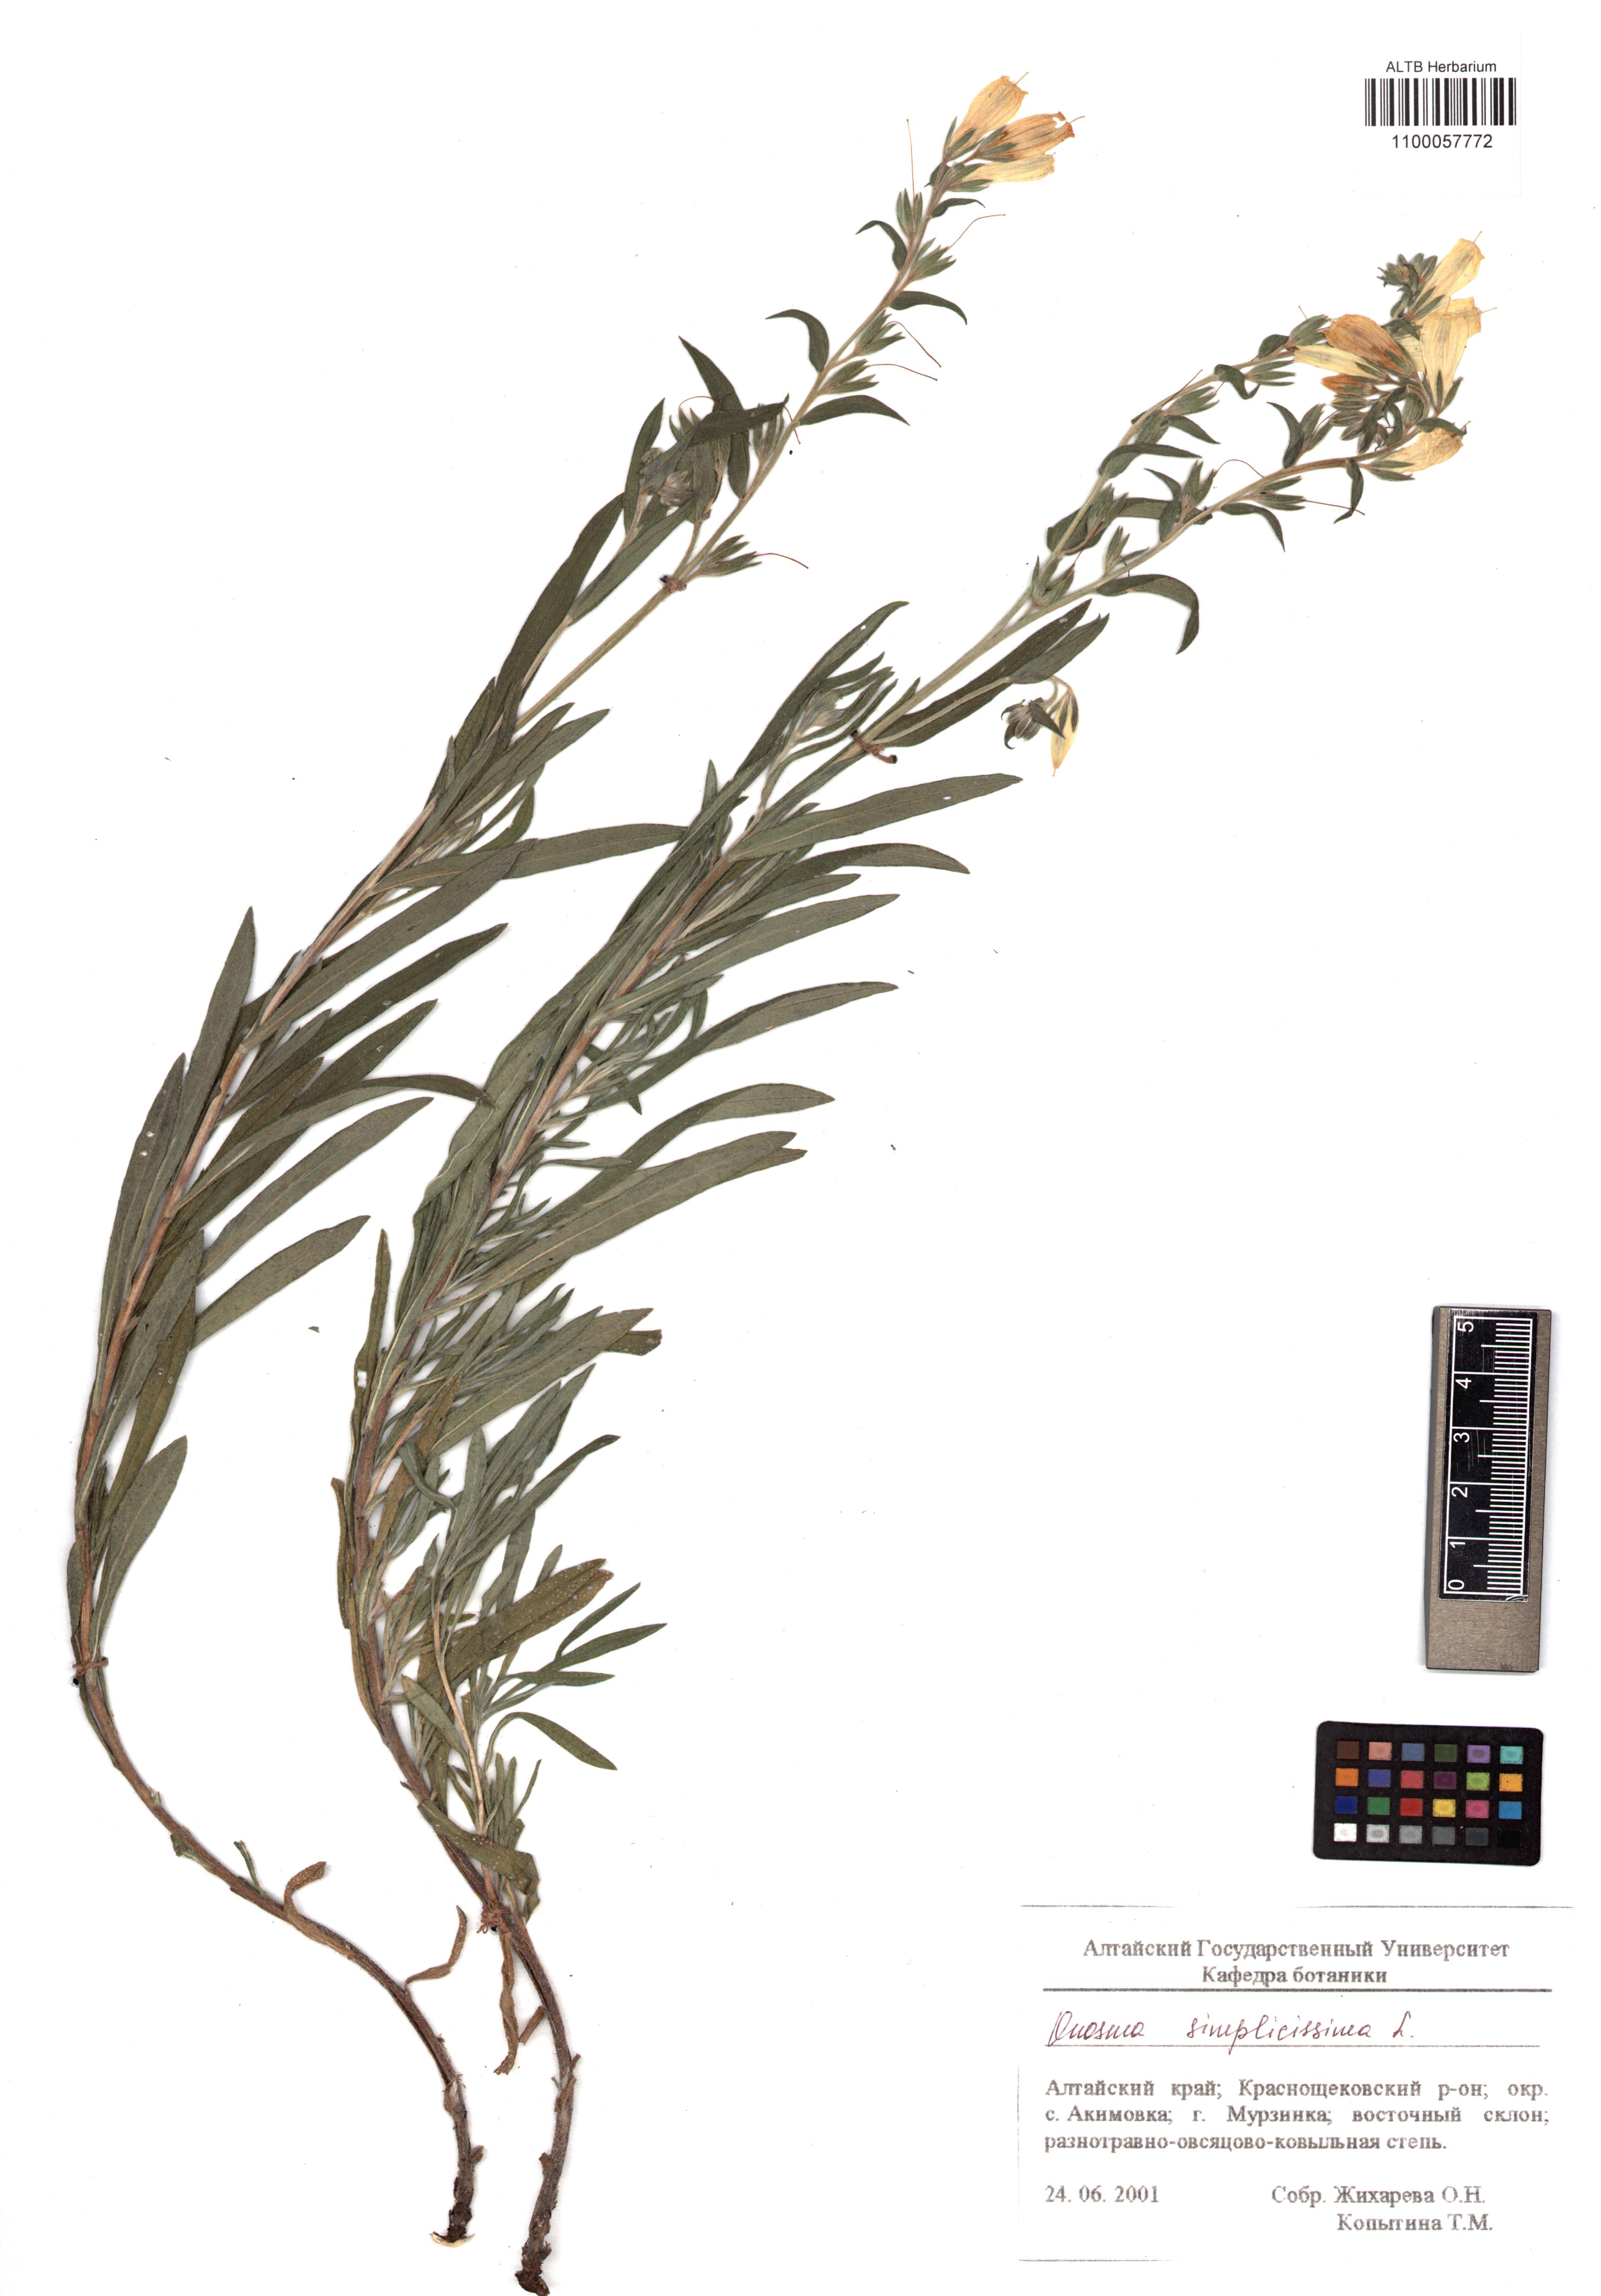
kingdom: Plantae
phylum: Tracheophyta
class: Magnoliopsida
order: Boraginales
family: Boraginaceae
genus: Onosma
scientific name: Onosma simplicissima
